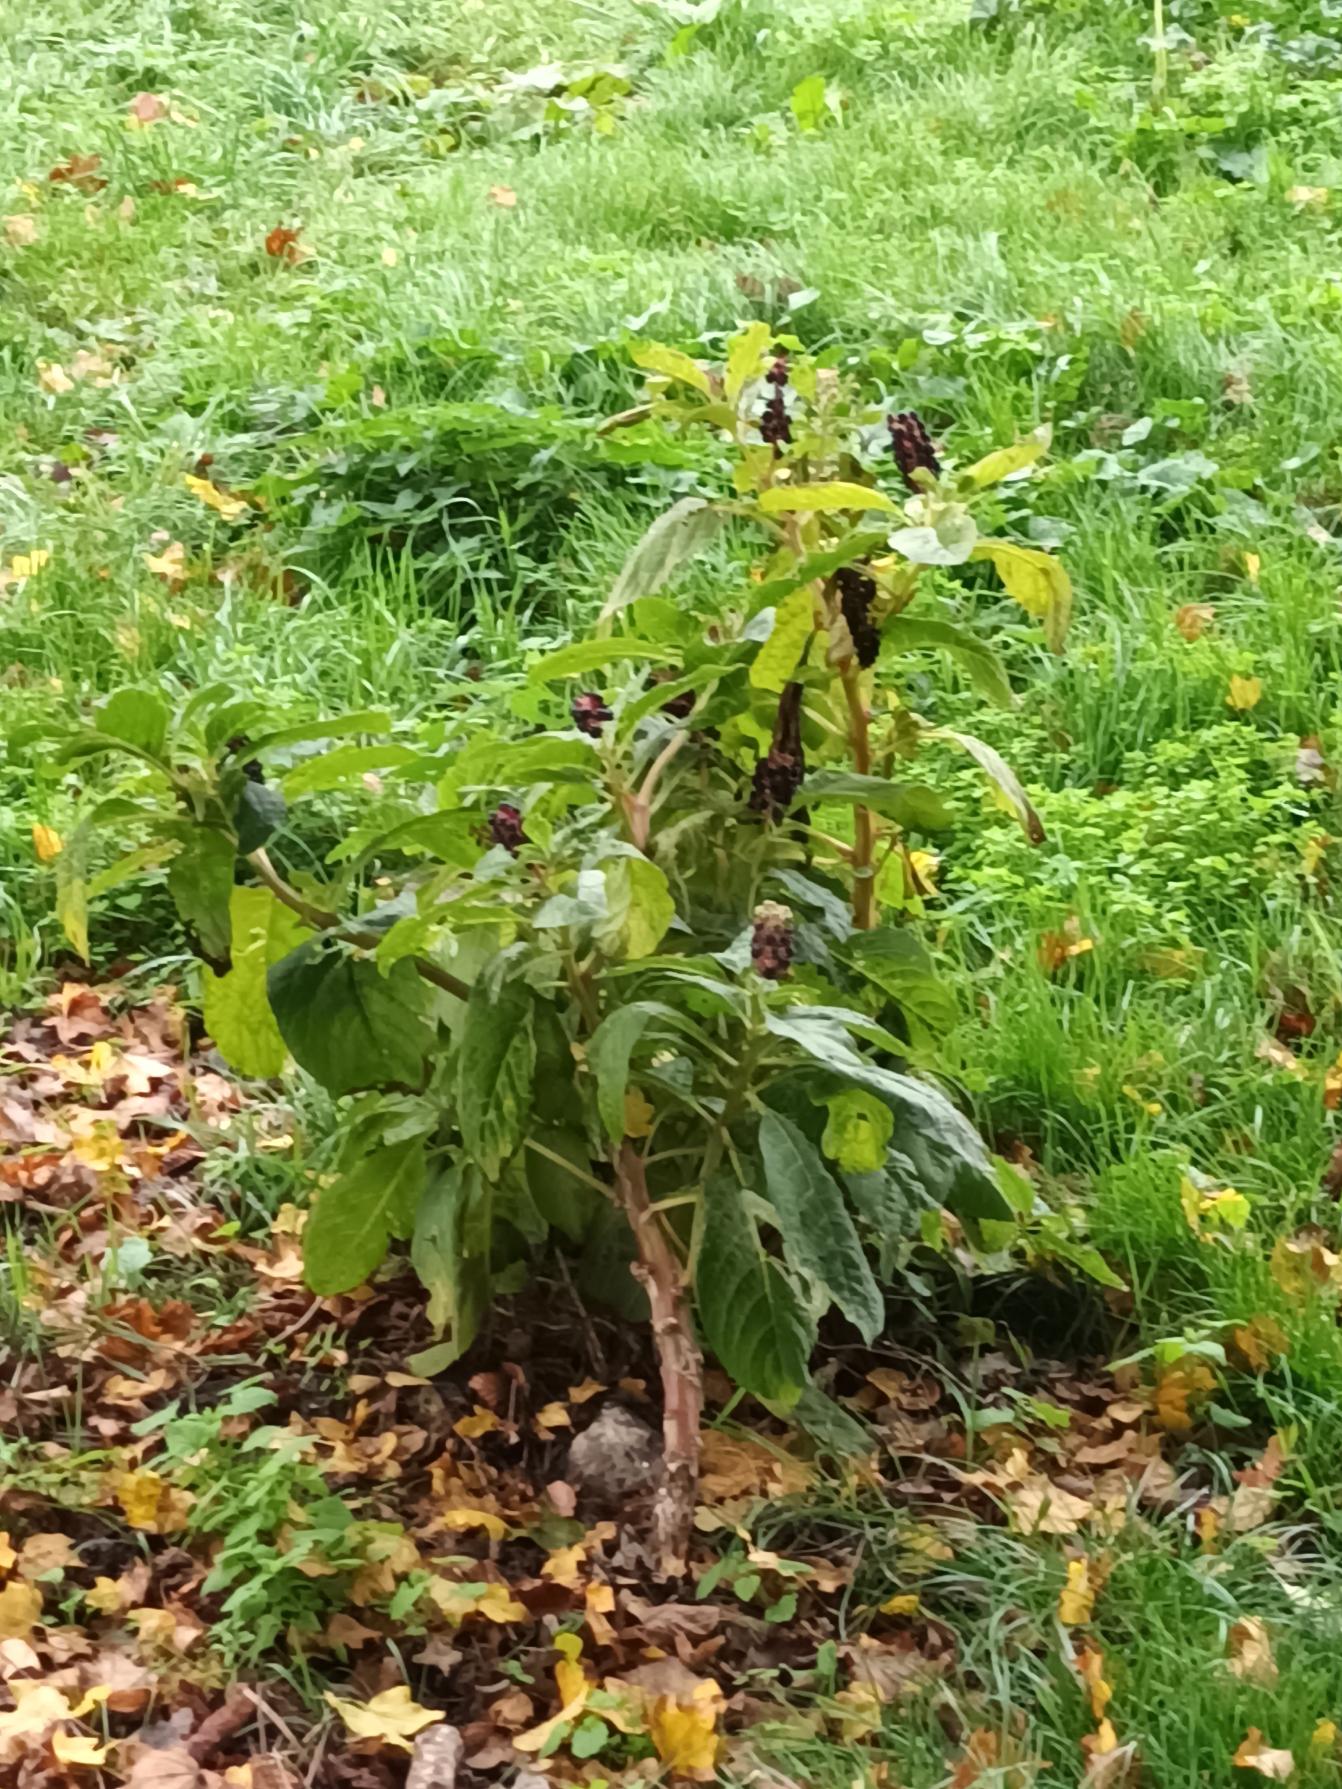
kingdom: Plantae
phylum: Tracheophyta
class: Magnoliopsida
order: Caryophyllales
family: Phytolaccaceae
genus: Phytolacca
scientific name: Phytolacca acinosa
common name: Asiatisk kermesbær
